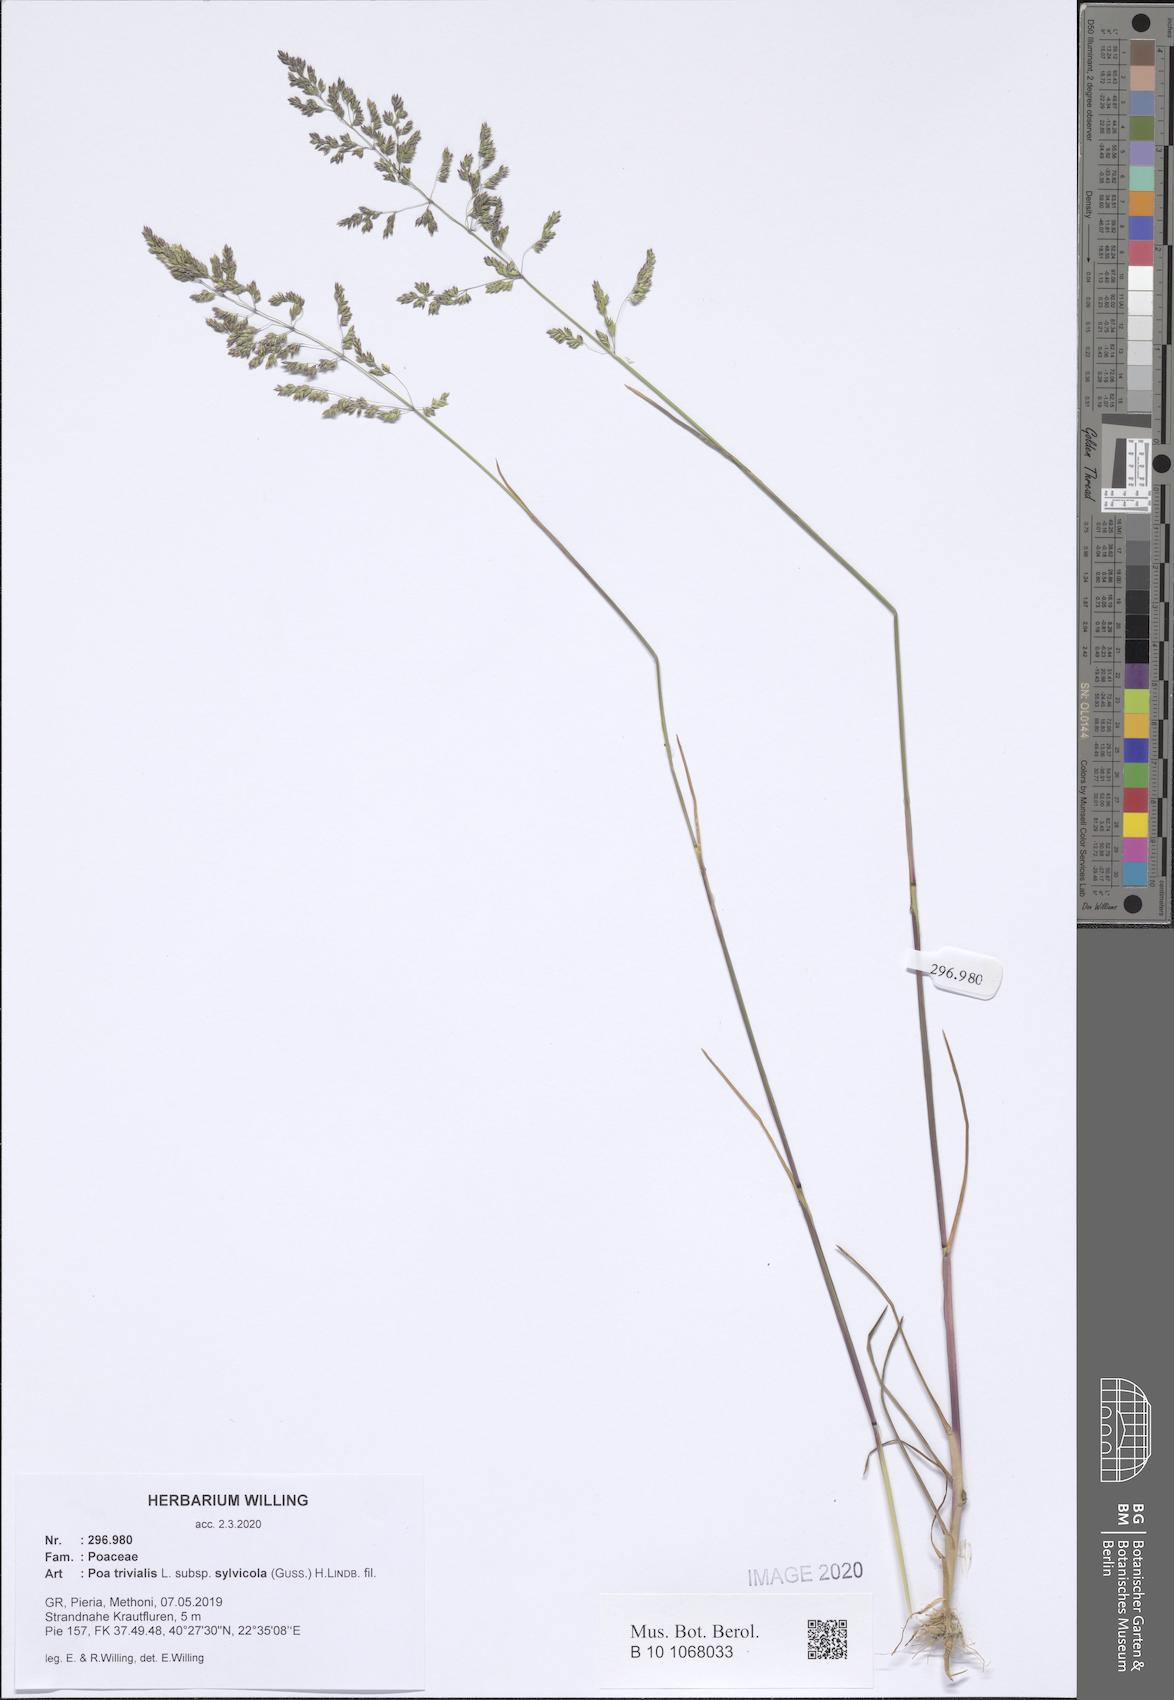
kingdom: Plantae
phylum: Tracheophyta
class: Liliopsida
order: Poales
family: Poaceae
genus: Poa
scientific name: Poa trivialis
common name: Rough bluegrass
